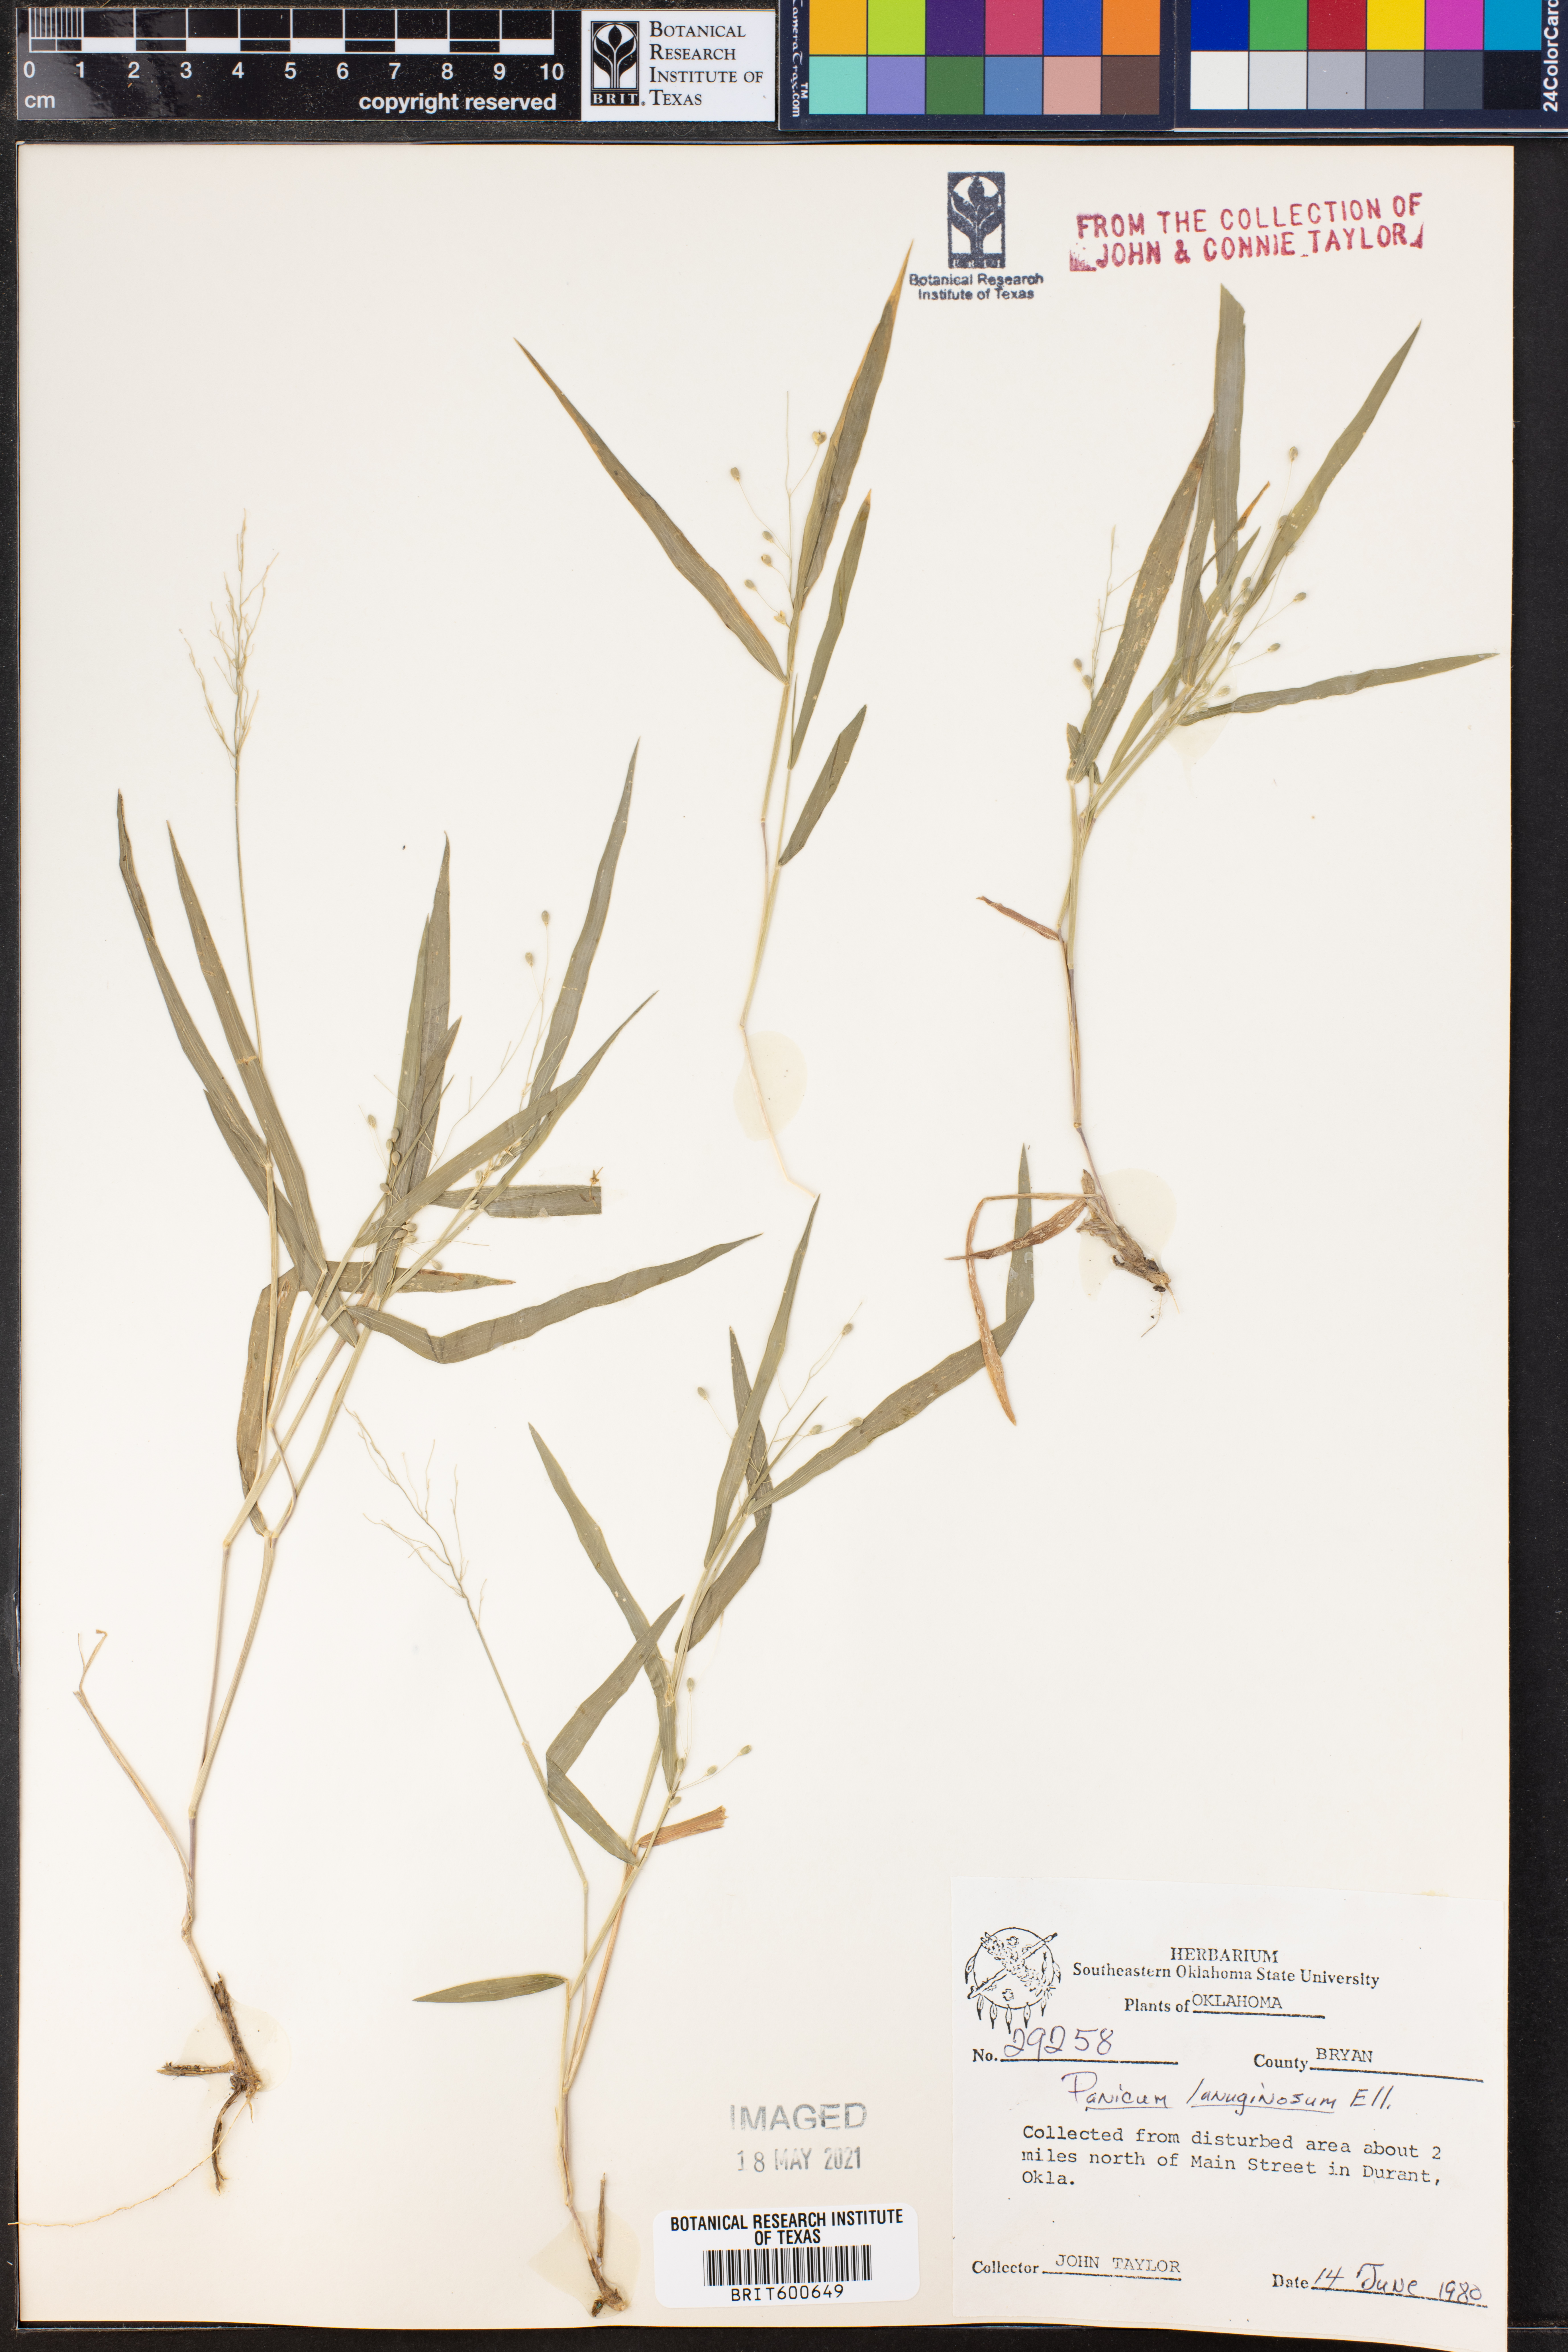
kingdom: Plantae
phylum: Tracheophyta
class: Liliopsida
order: Poales
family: Poaceae
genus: Dichanthelium
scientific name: Dichanthelium lanuginosum
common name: Woolly panicgrass
